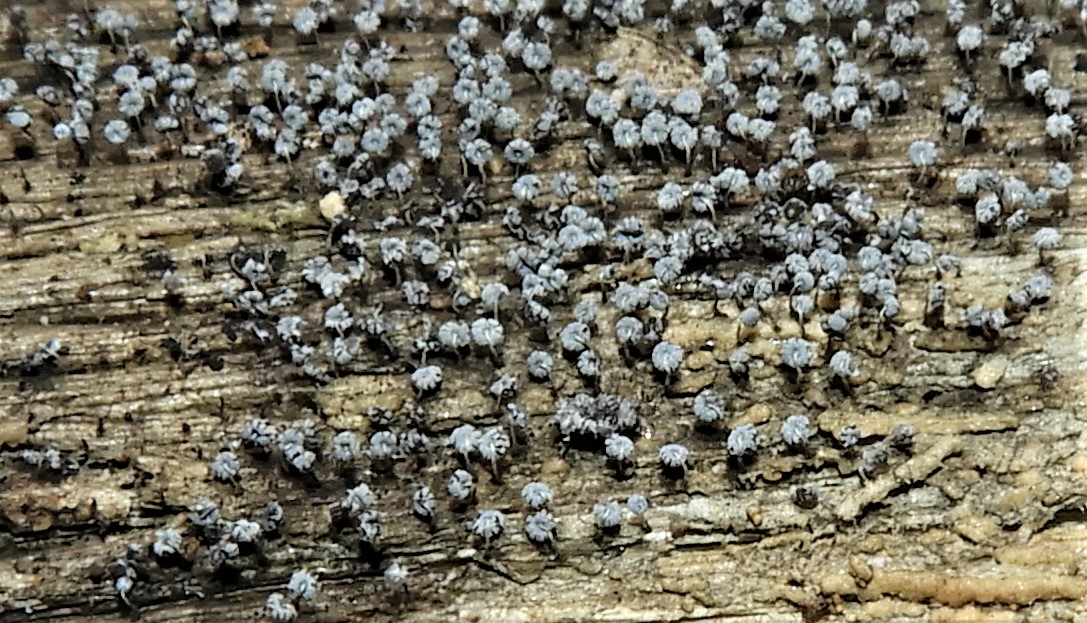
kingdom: Protozoa
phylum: Mycetozoa
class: Myxomycetes
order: Physarales
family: Physaraceae
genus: Physarum
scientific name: Physarum album
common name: nikkende støvknop
